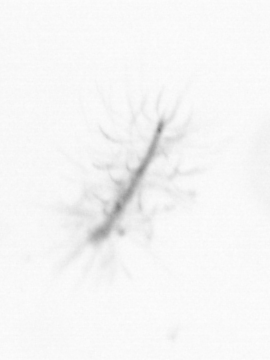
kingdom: Chromista
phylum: Ochrophyta
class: Bacillariophyceae
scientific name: Bacillariophyceae
